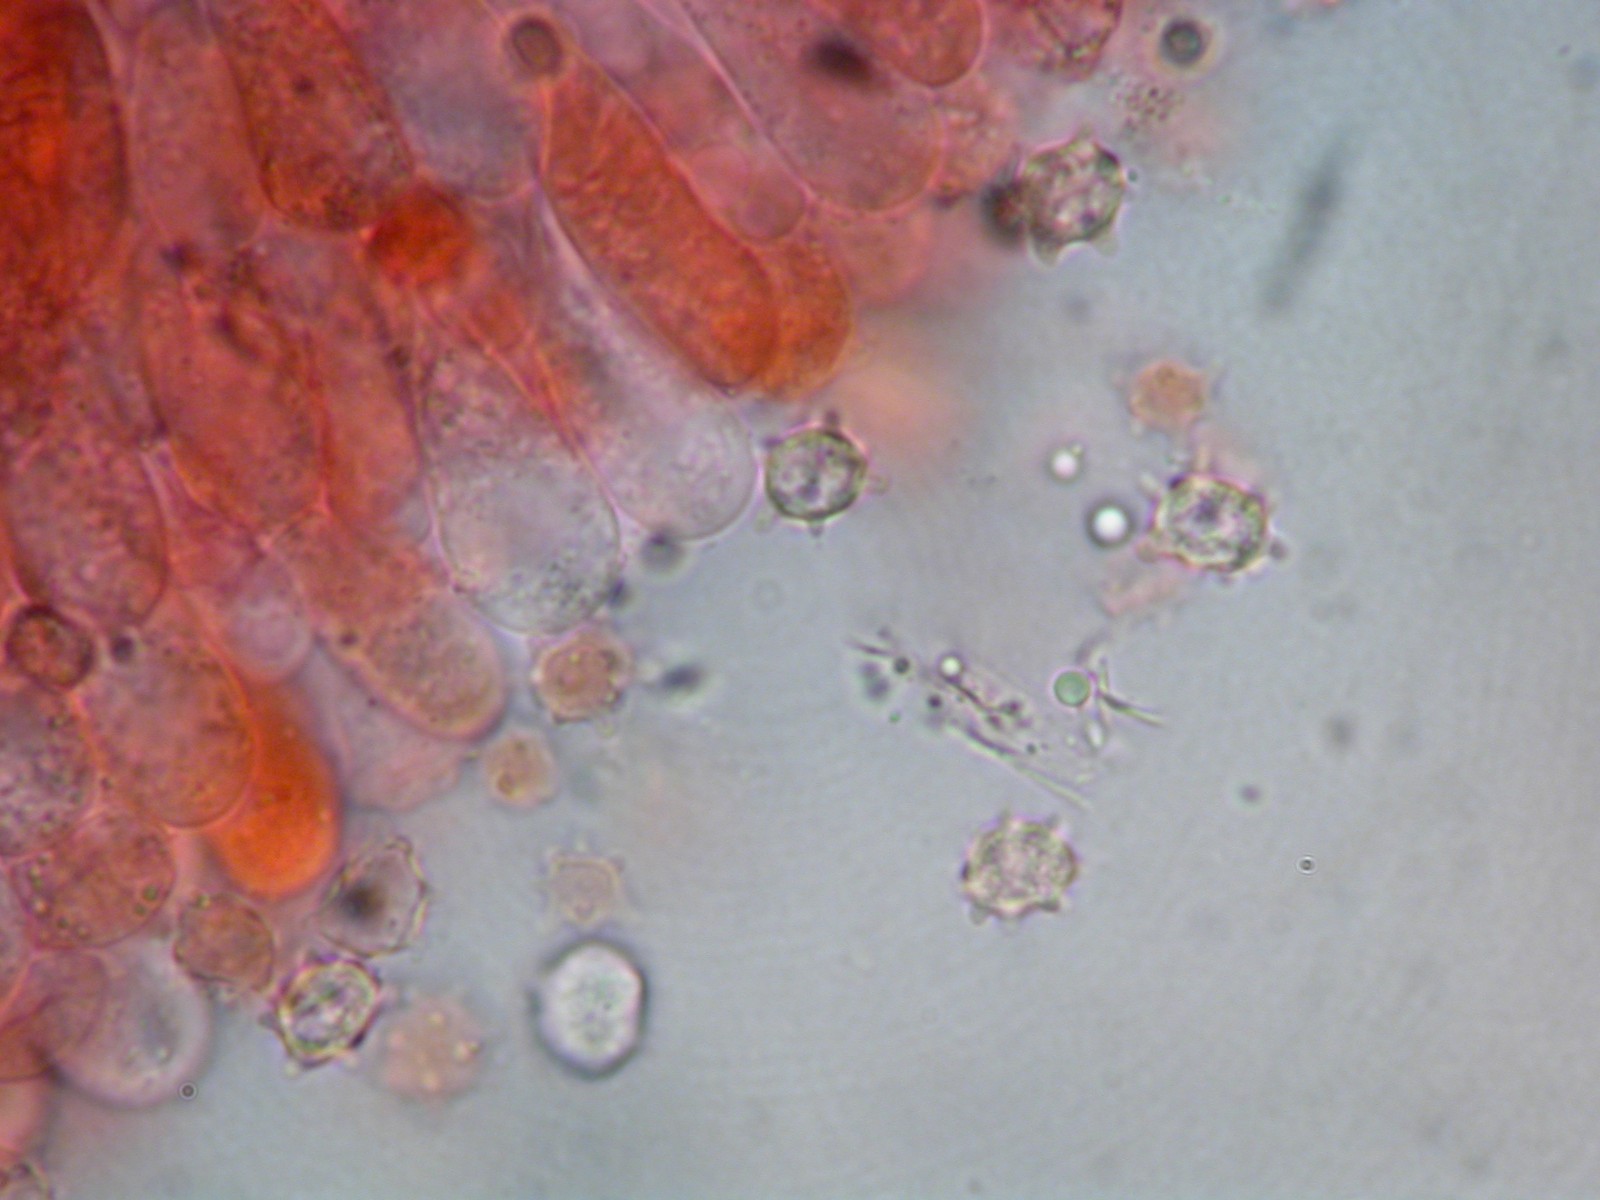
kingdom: Fungi
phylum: Basidiomycota
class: Agaricomycetes
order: Agaricales
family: Tricholomataceae
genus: Omphaliaster
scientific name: Omphaliaster asterosporus
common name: narrehat
